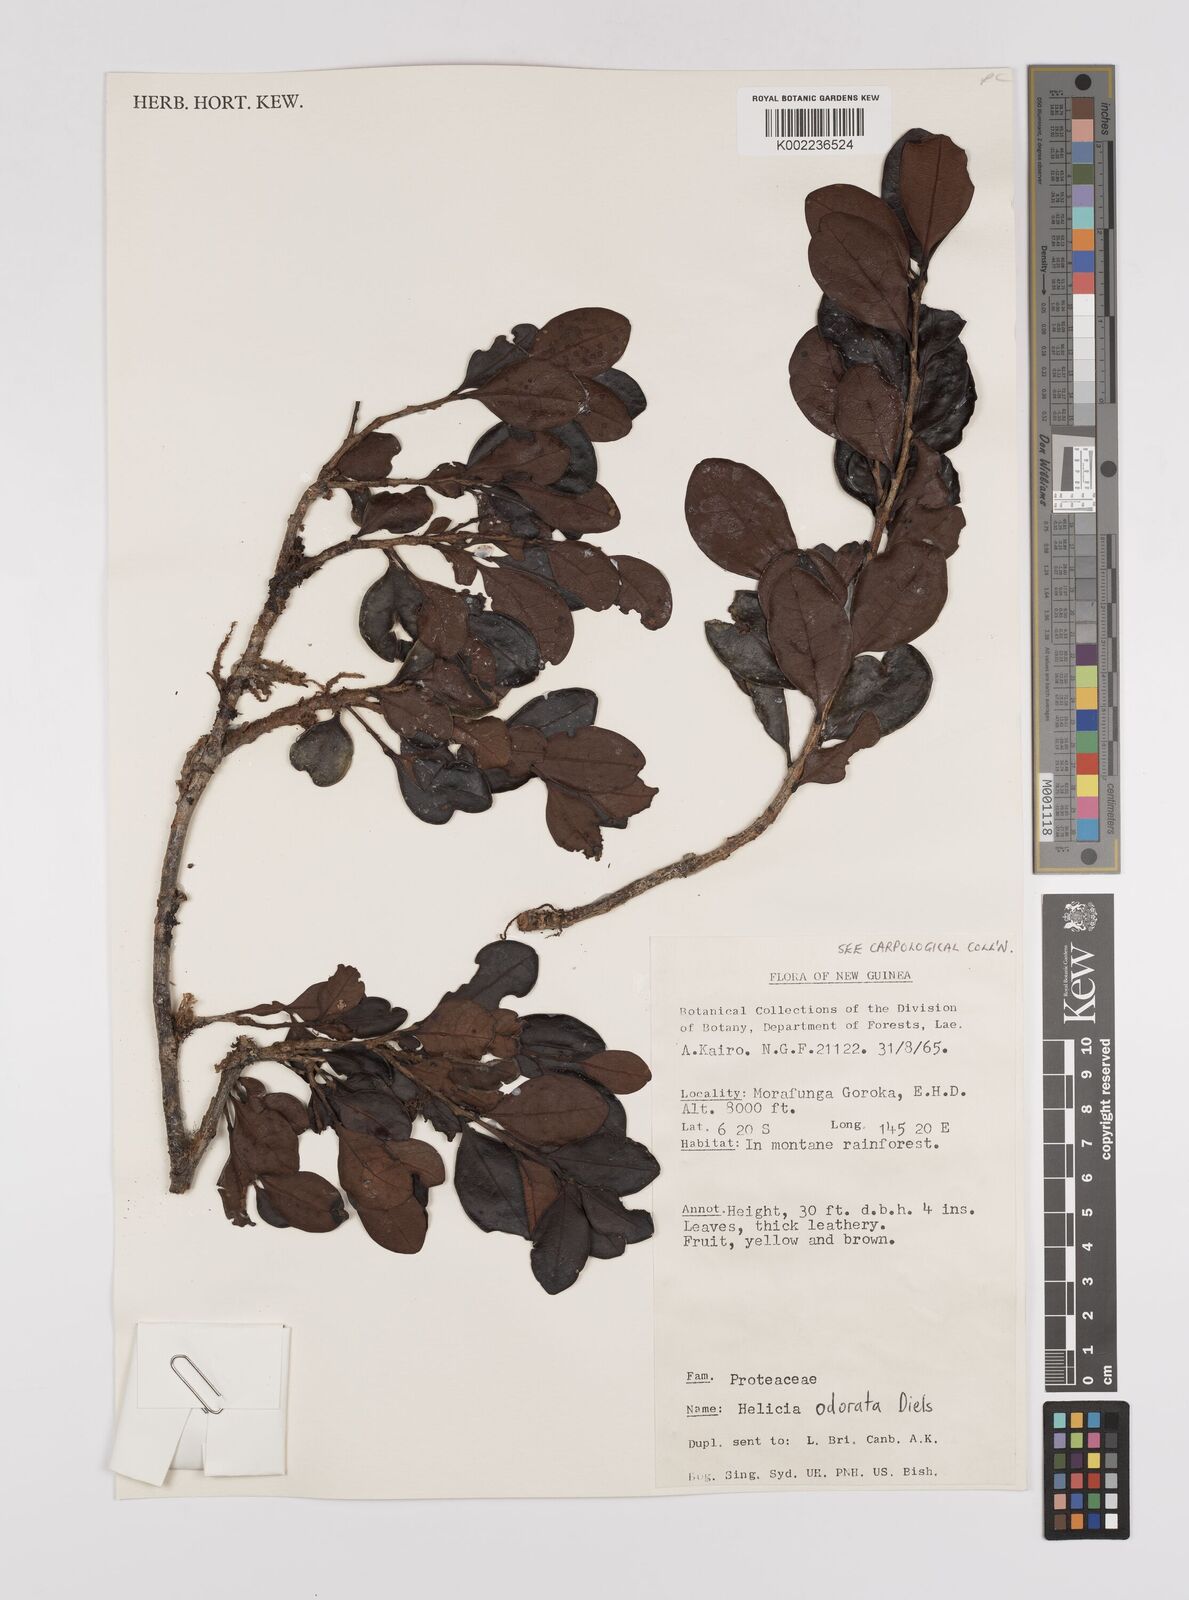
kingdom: Plantae
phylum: Tracheophyta
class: Magnoliopsida
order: Proteales
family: Proteaceae
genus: Helicia
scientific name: Helicia odorata
